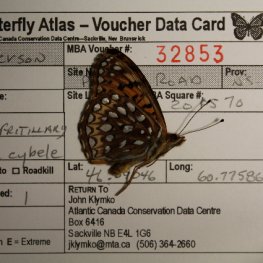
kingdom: Animalia
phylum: Arthropoda
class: Insecta
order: Lepidoptera
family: Nymphalidae
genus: Speyeria
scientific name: Speyeria cybele
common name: Great Spangled Fritillary
